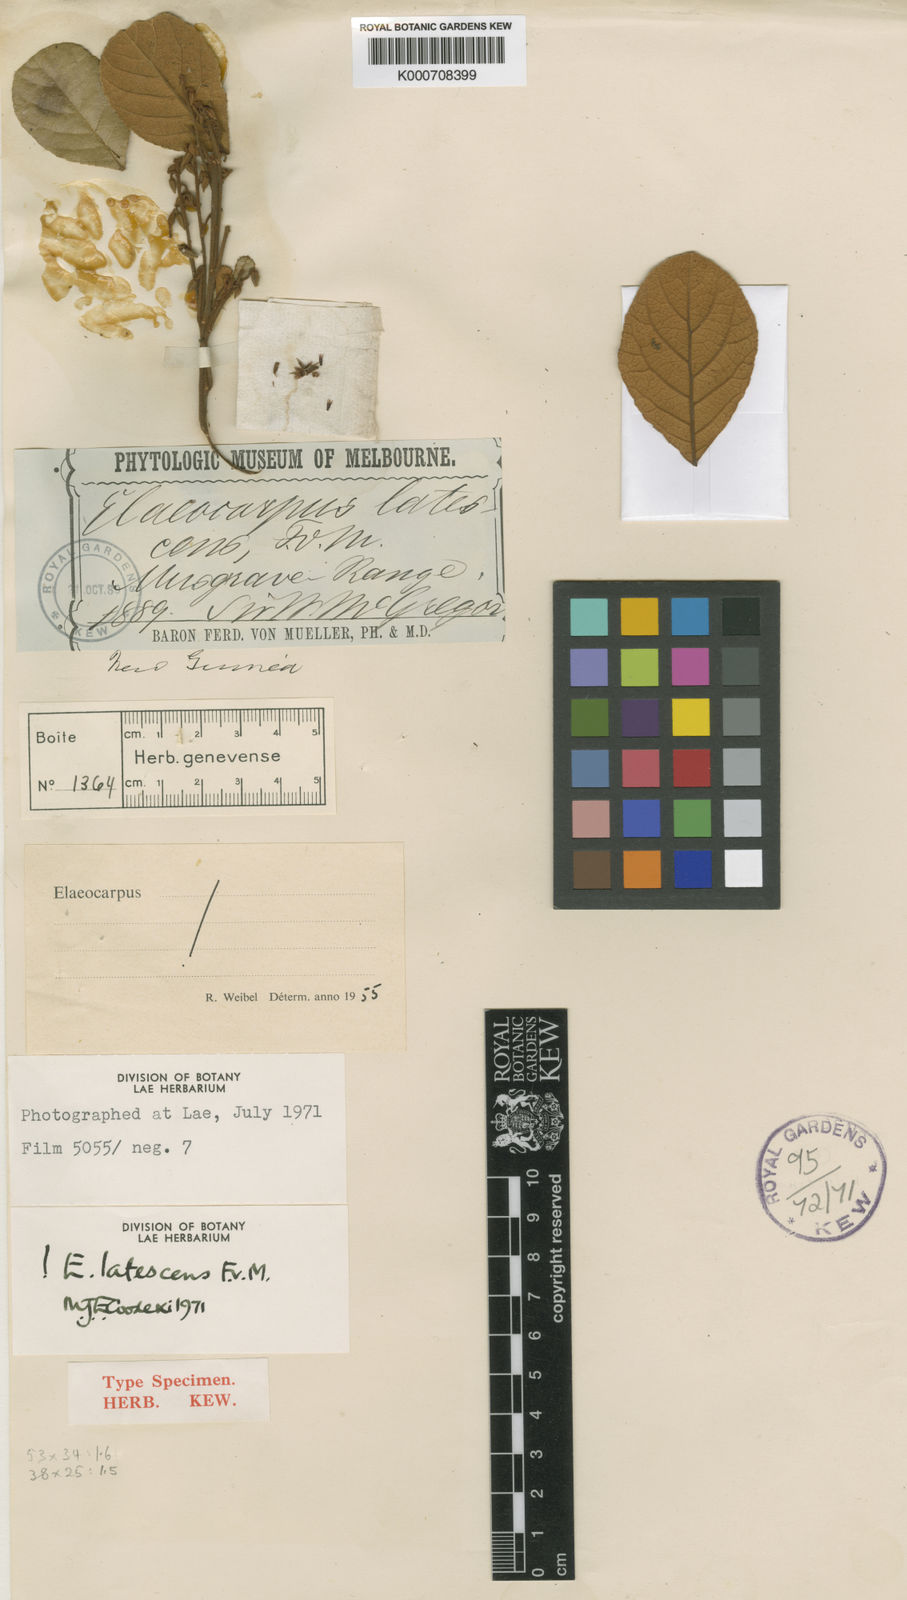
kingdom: Plantae
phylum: Tracheophyta
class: Magnoliopsida
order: Oxalidales
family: Elaeocarpaceae
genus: Elaeocarpus
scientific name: Elaeocarpus latescens
